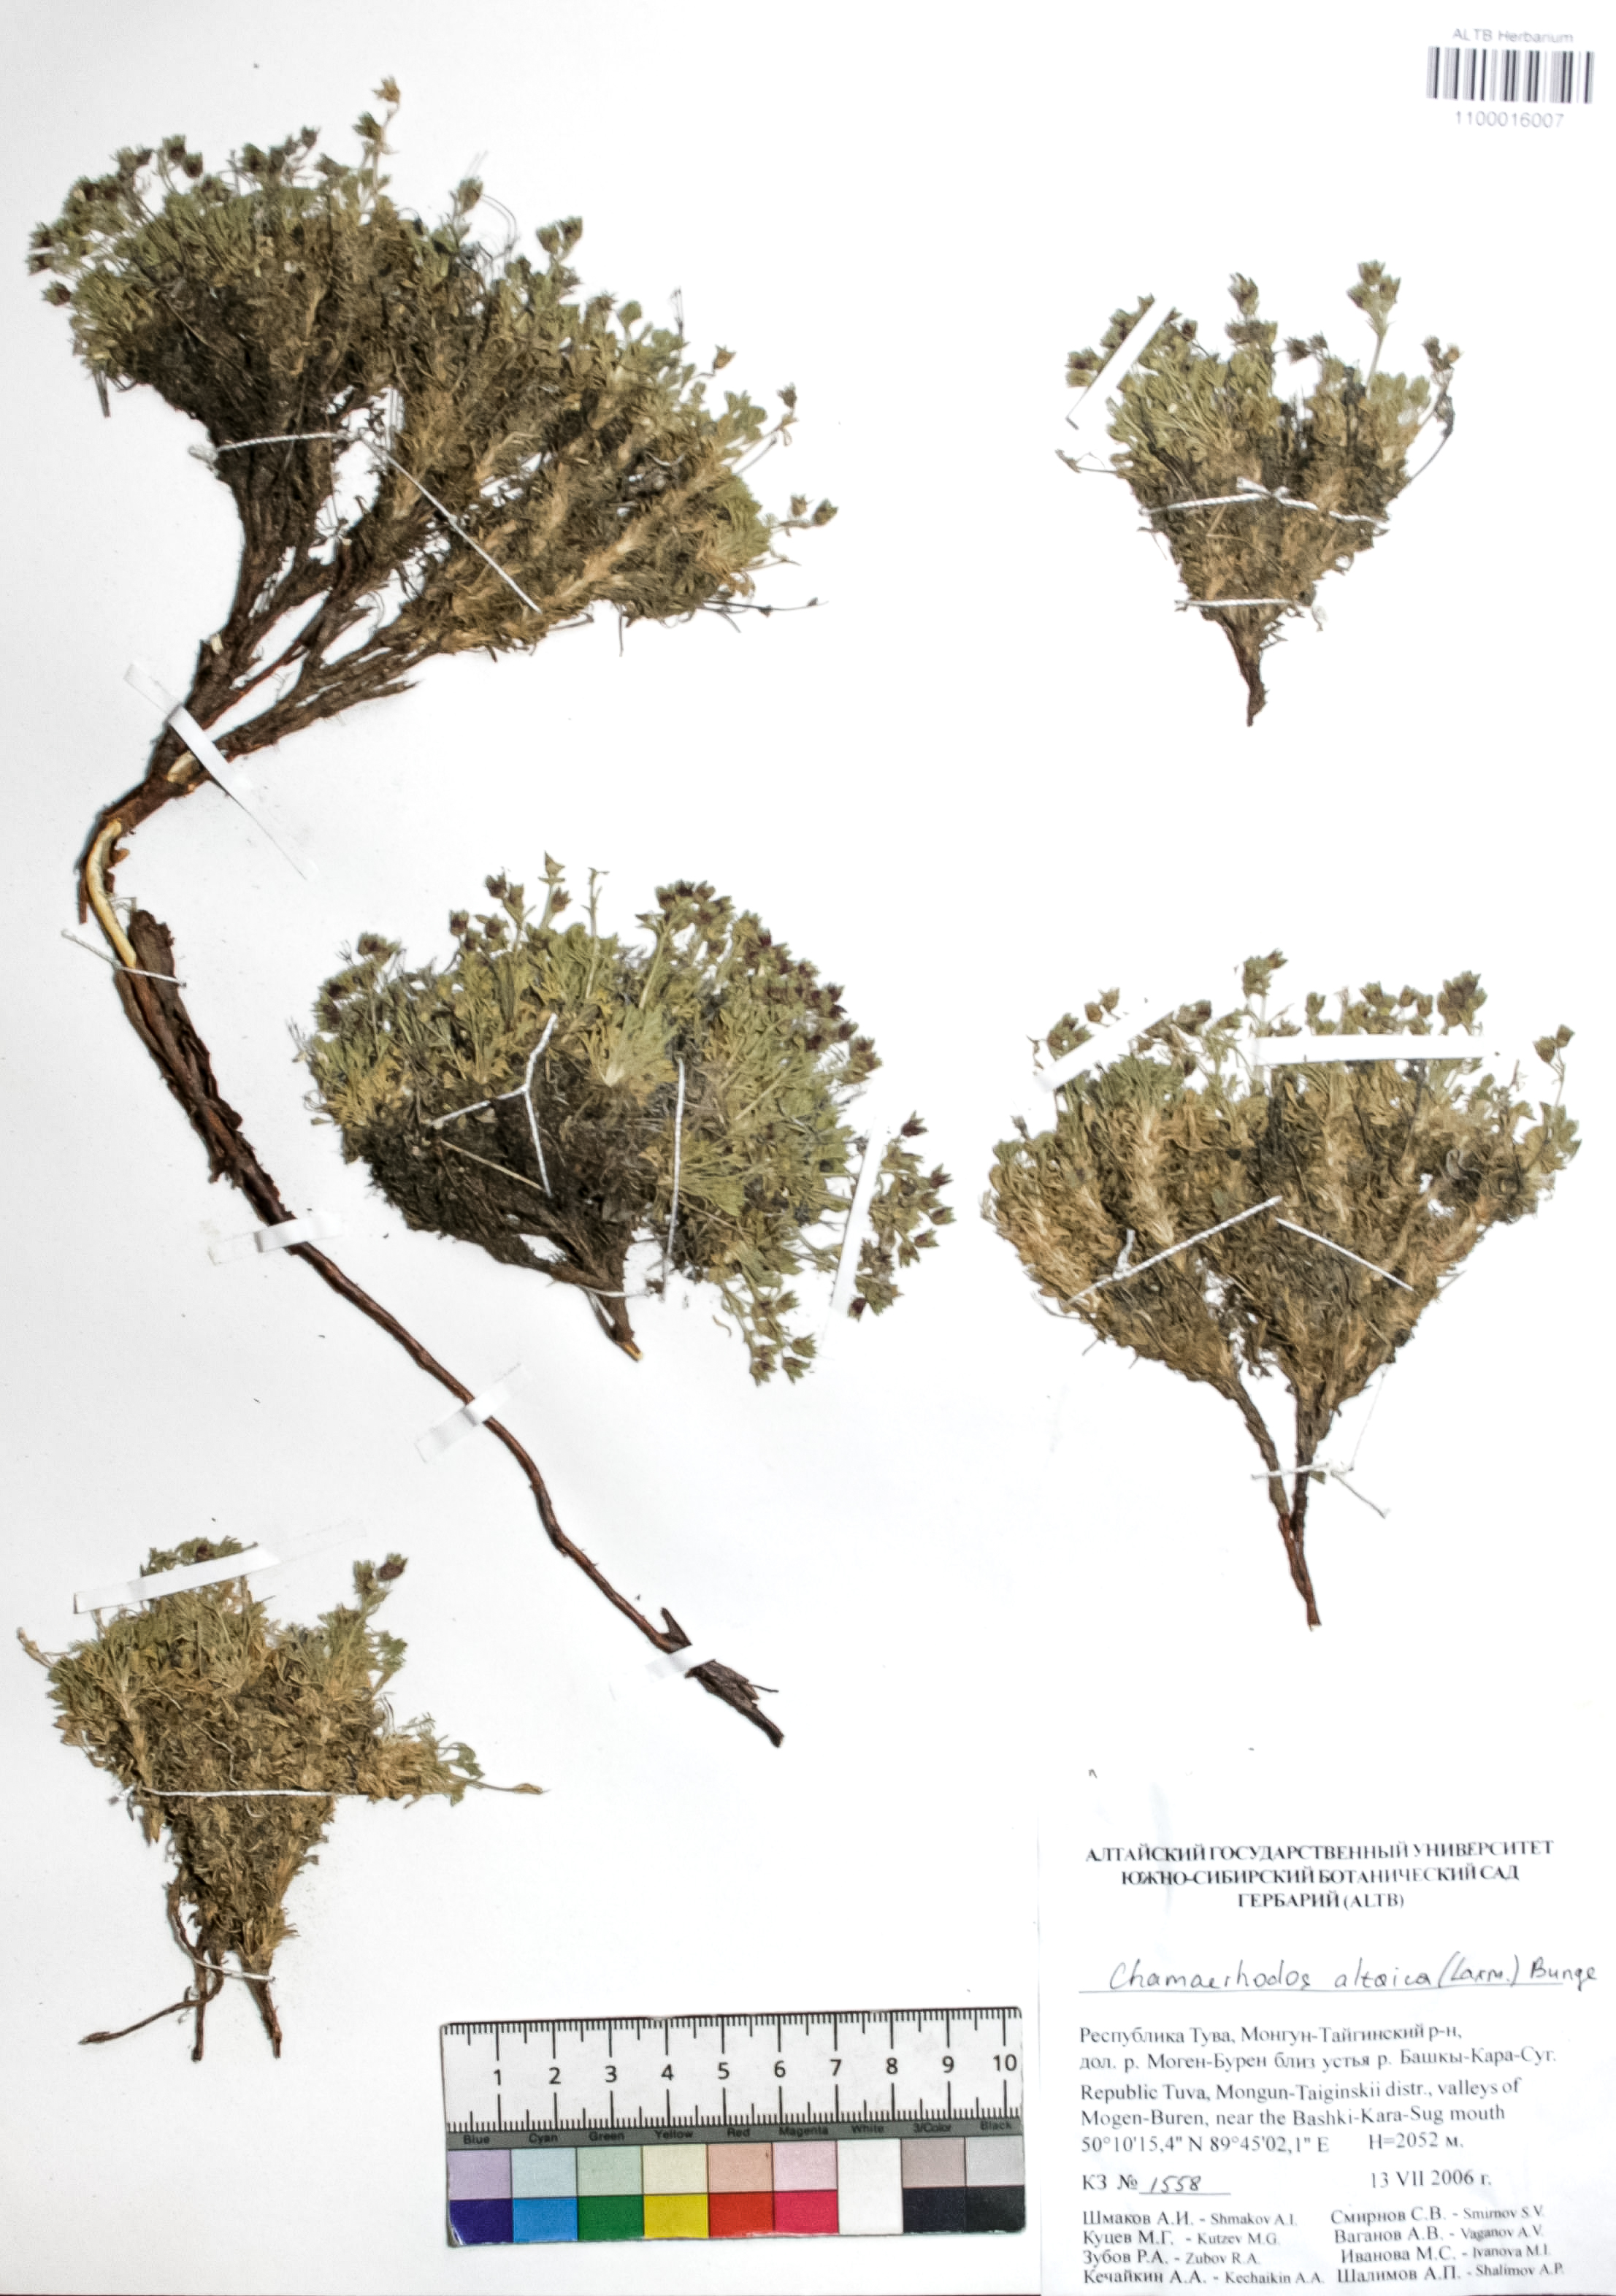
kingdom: Plantae
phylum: Tracheophyta
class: Magnoliopsida
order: Rosales
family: Rosaceae
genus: Chamaerhodos
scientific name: Chamaerhodos altaica
